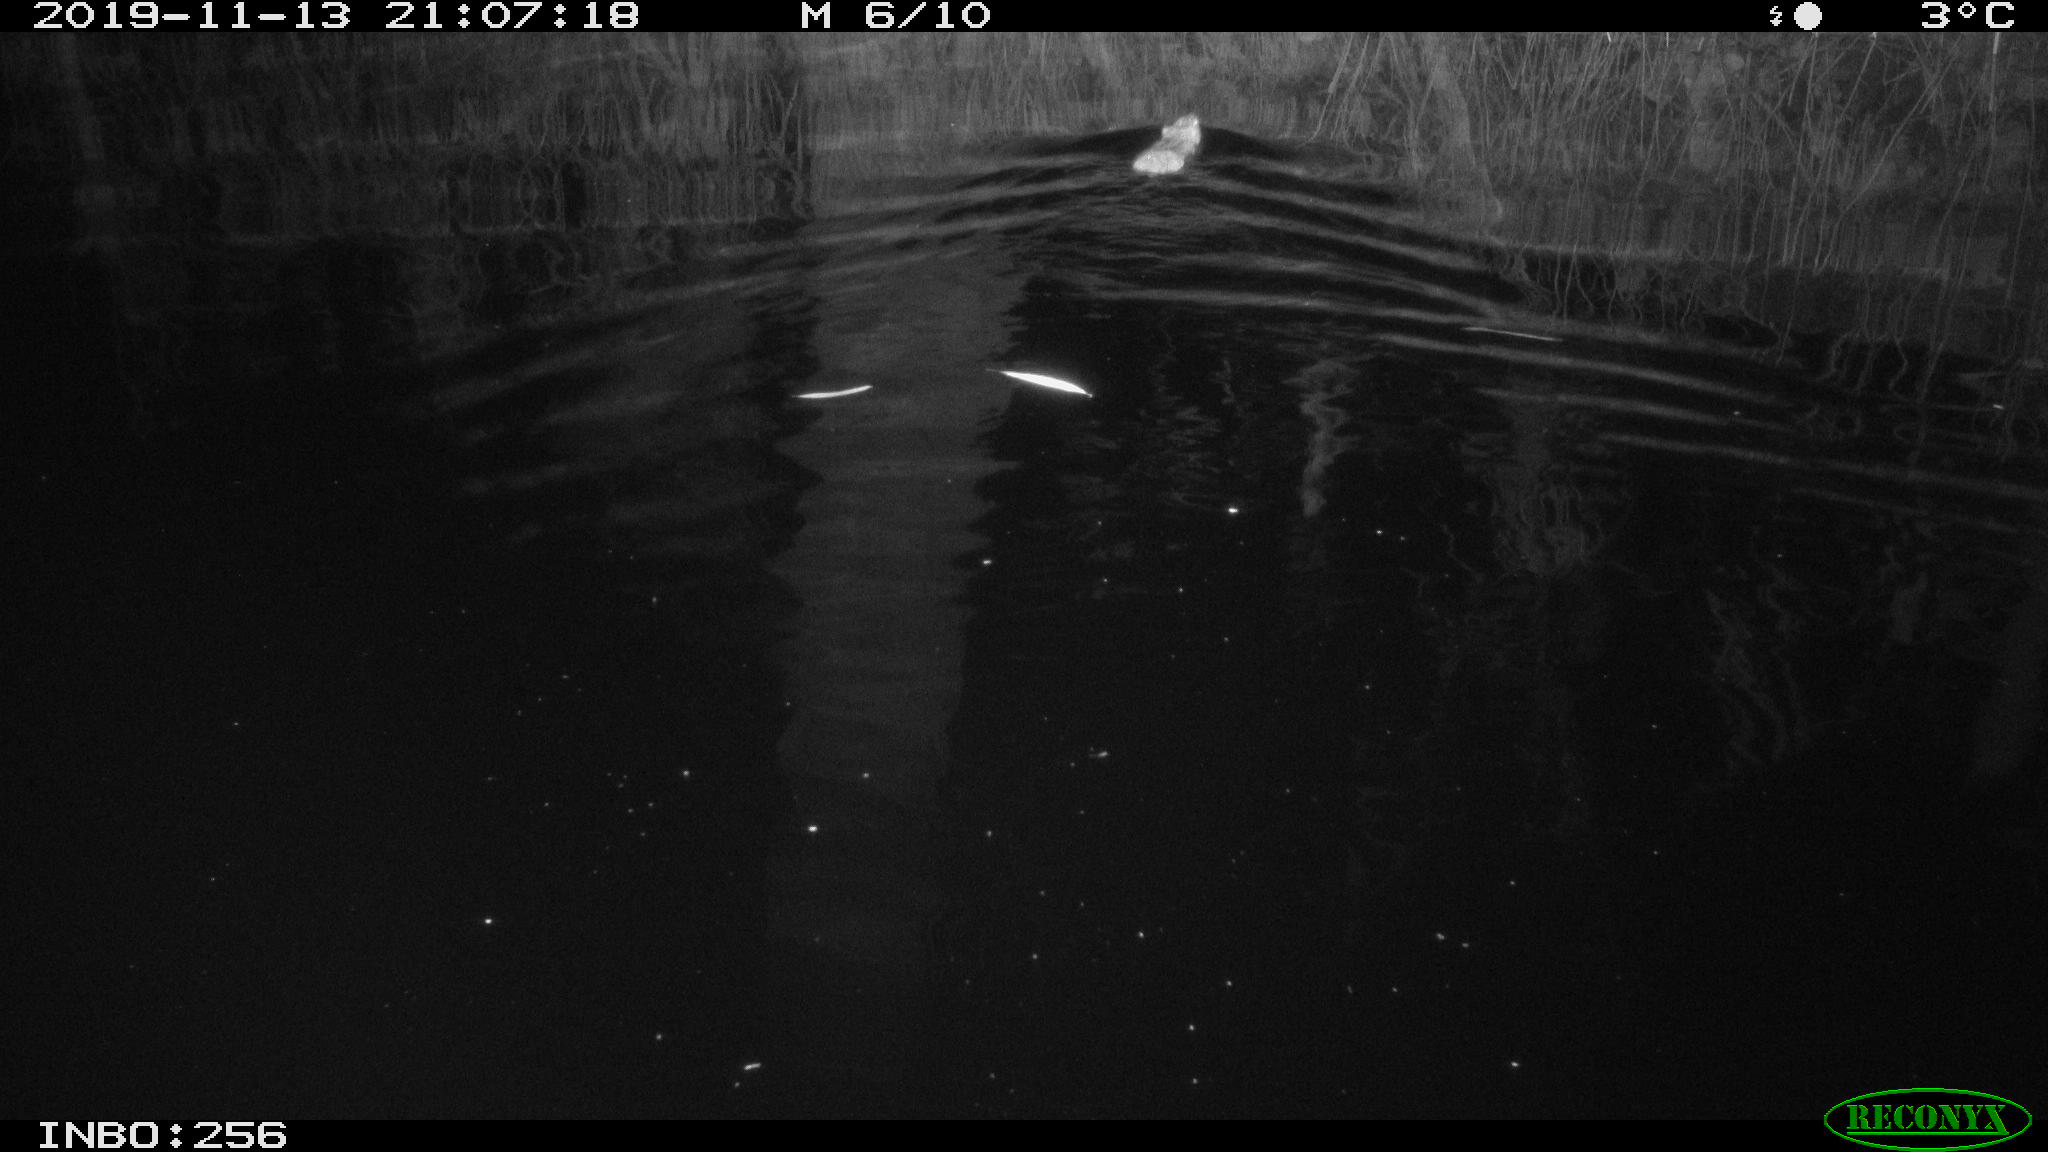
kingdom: Animalia
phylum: Chordata
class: Mammalia
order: Rodentia
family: Muridae
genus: Rattus
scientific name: Rattus norvegicus
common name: Brown rat
